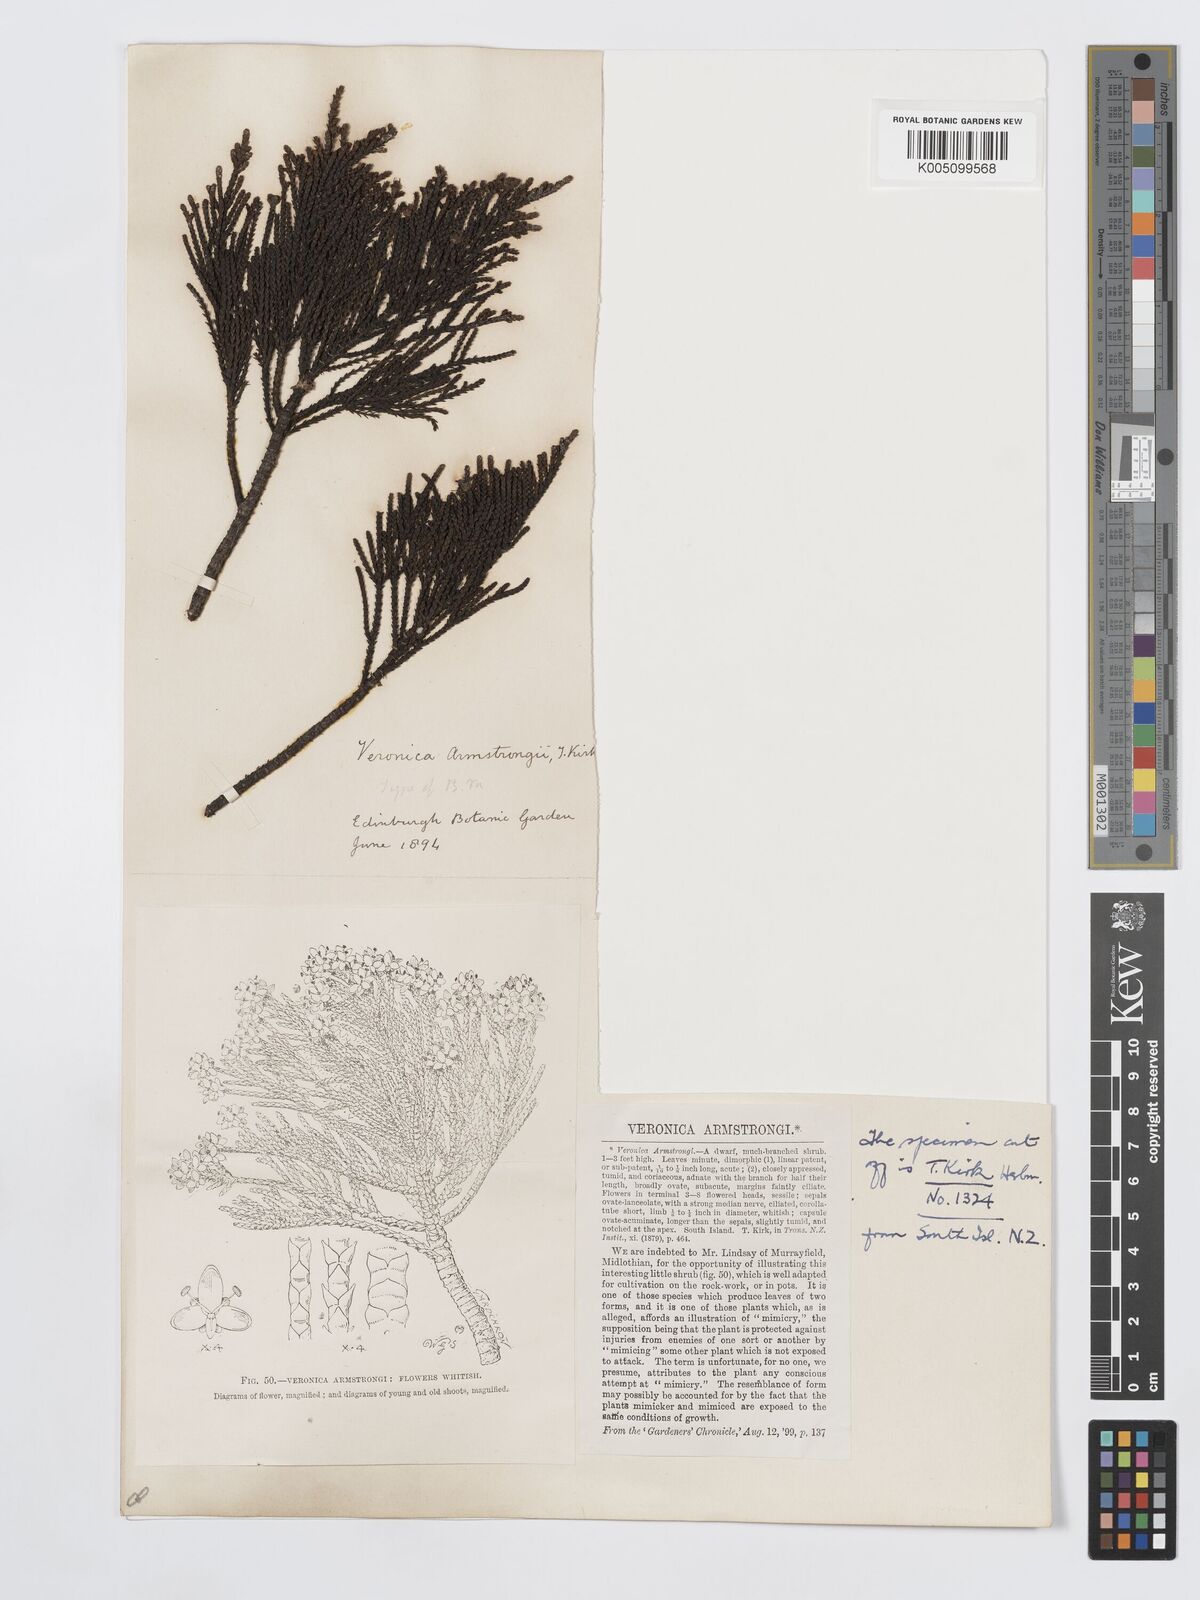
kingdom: Plantae
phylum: Tracheophyta
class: Magnoliopsida
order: Lamiales
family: Plantaginaceae
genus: Veronica
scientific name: Veronica armstrongii
